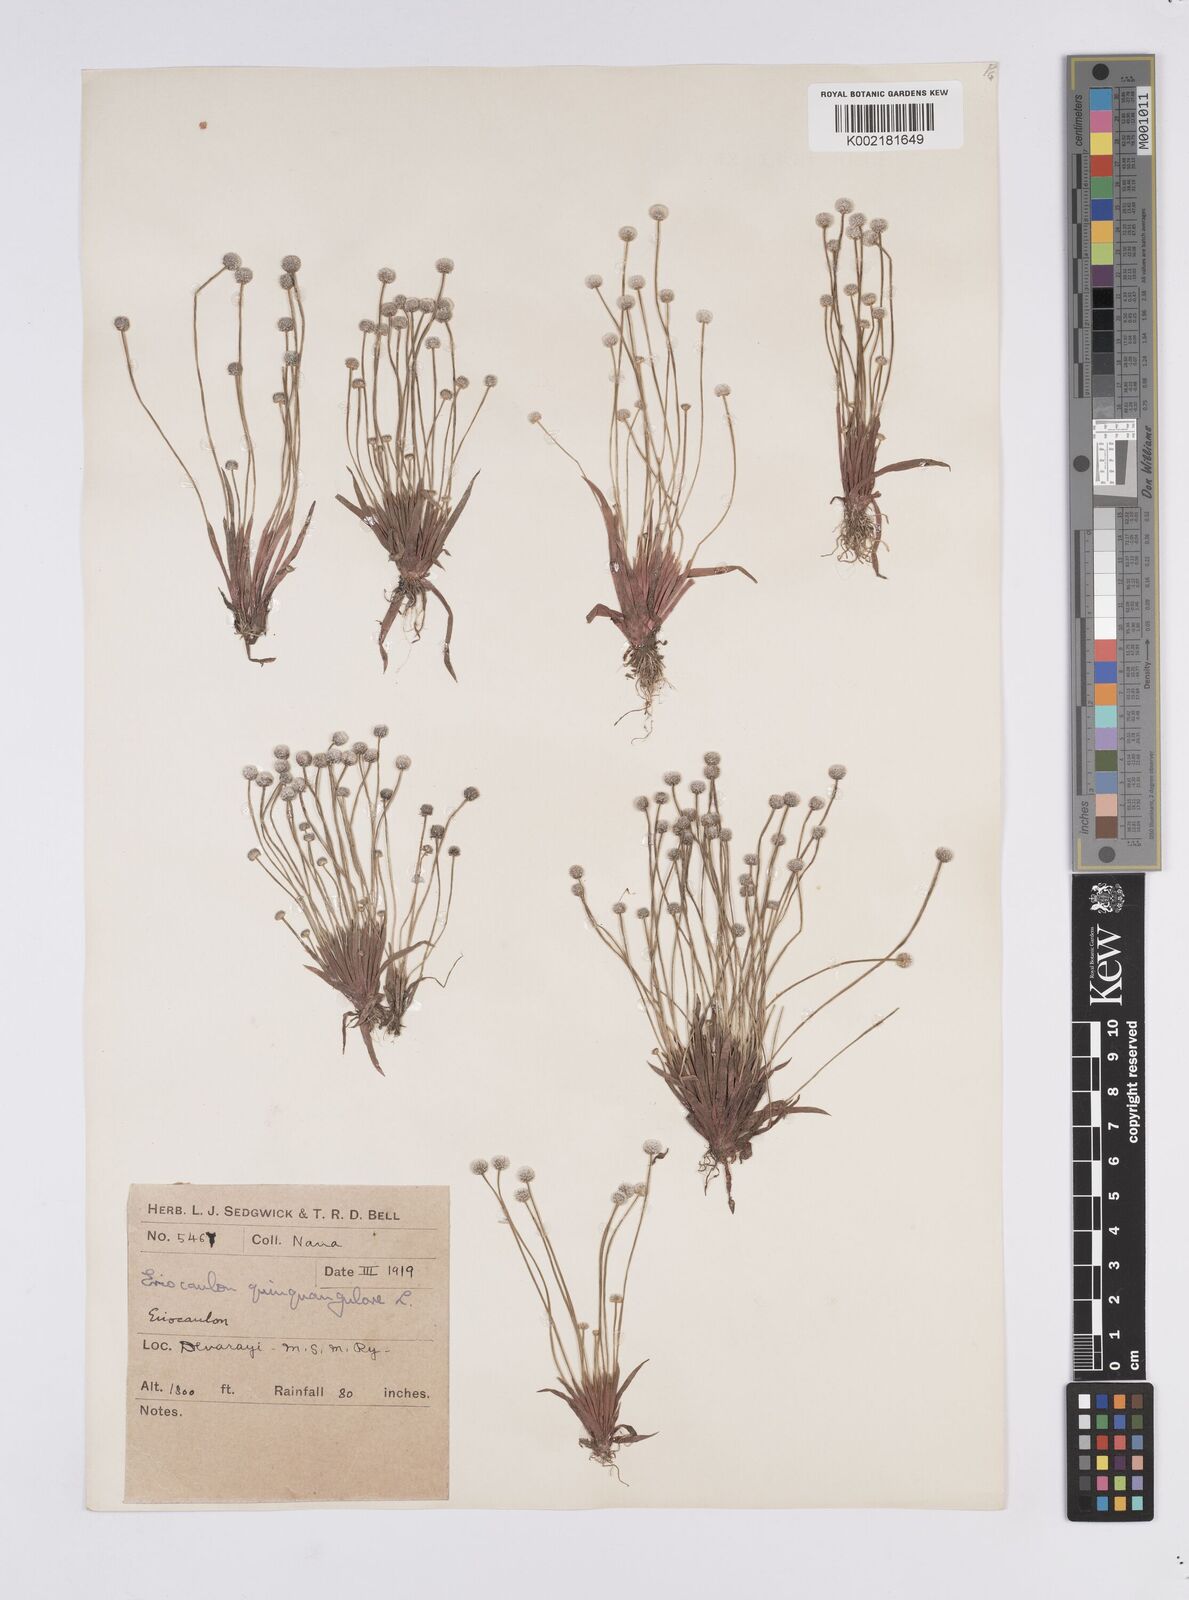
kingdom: Plantae
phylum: Tracheophyta
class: Liliopsida
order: Poales
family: Eriocaulaceae
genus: Eriocaulon
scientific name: Eriocaulon quinquangulare
